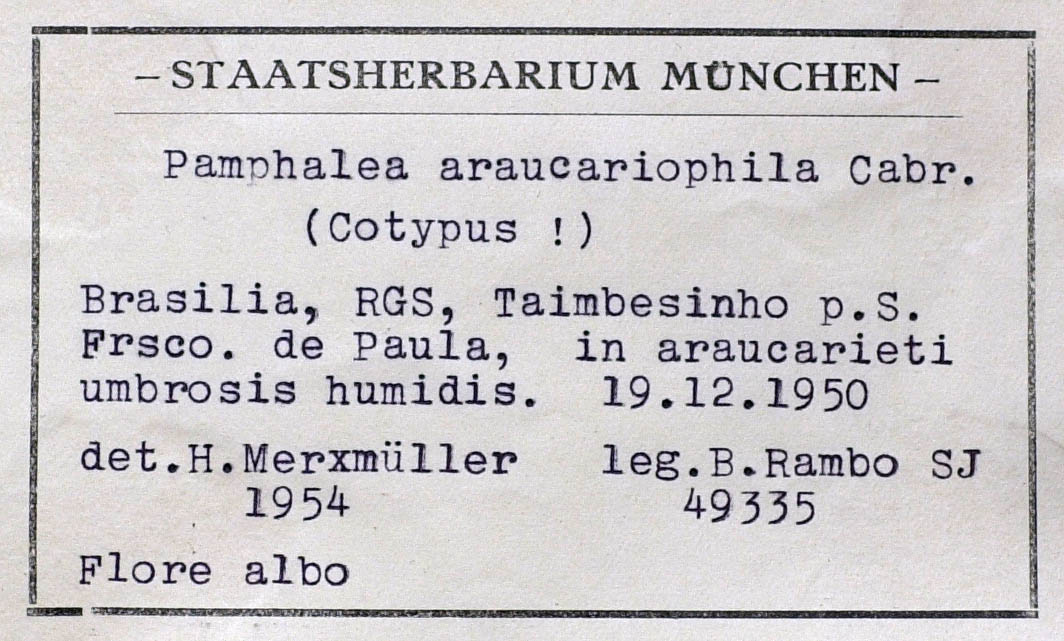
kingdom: Plantae
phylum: Tracheophyta
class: Magnoliopsida
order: Asterales
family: Asteraceae
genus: Pamphalea
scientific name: Pamphalea araucariophila
